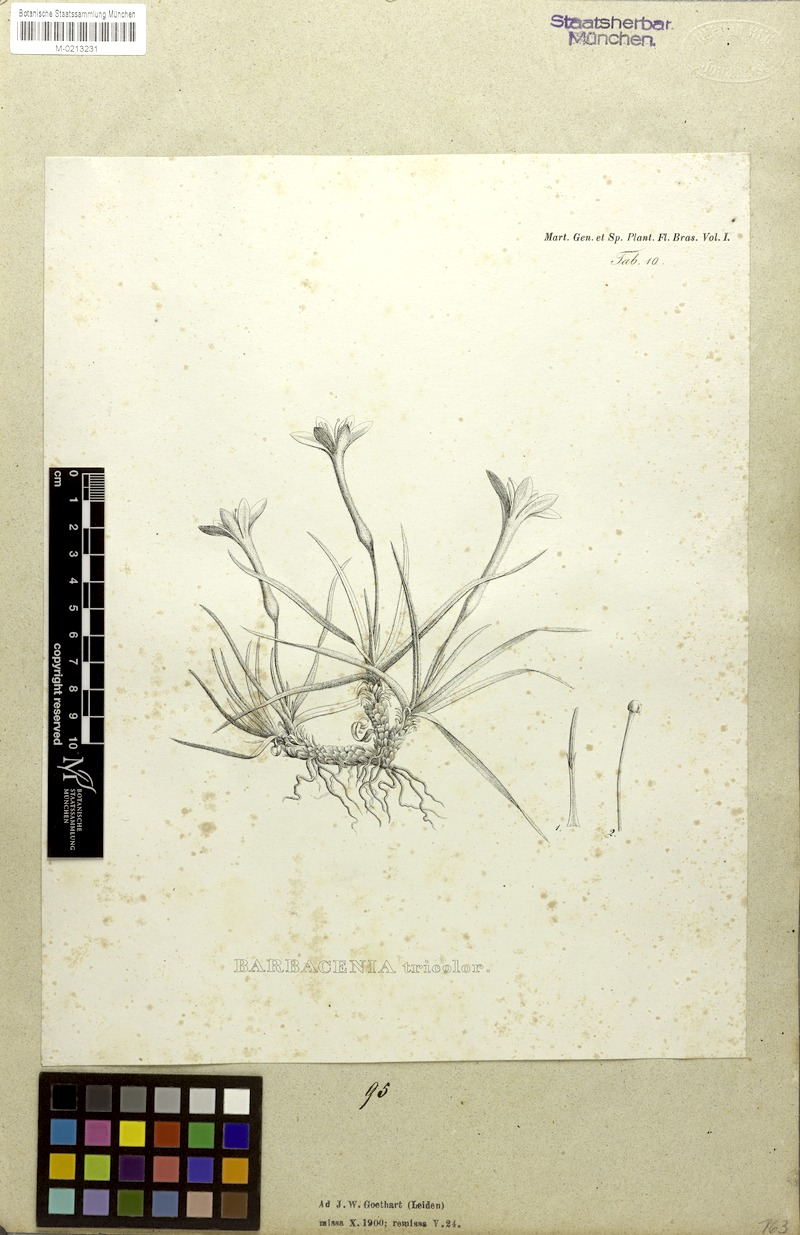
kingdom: Plantae
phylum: Tracheophyta
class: Liliopsida
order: Pandanales
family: Velloziaceae
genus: Barbacenia
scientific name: Barbacenia tomentosa
